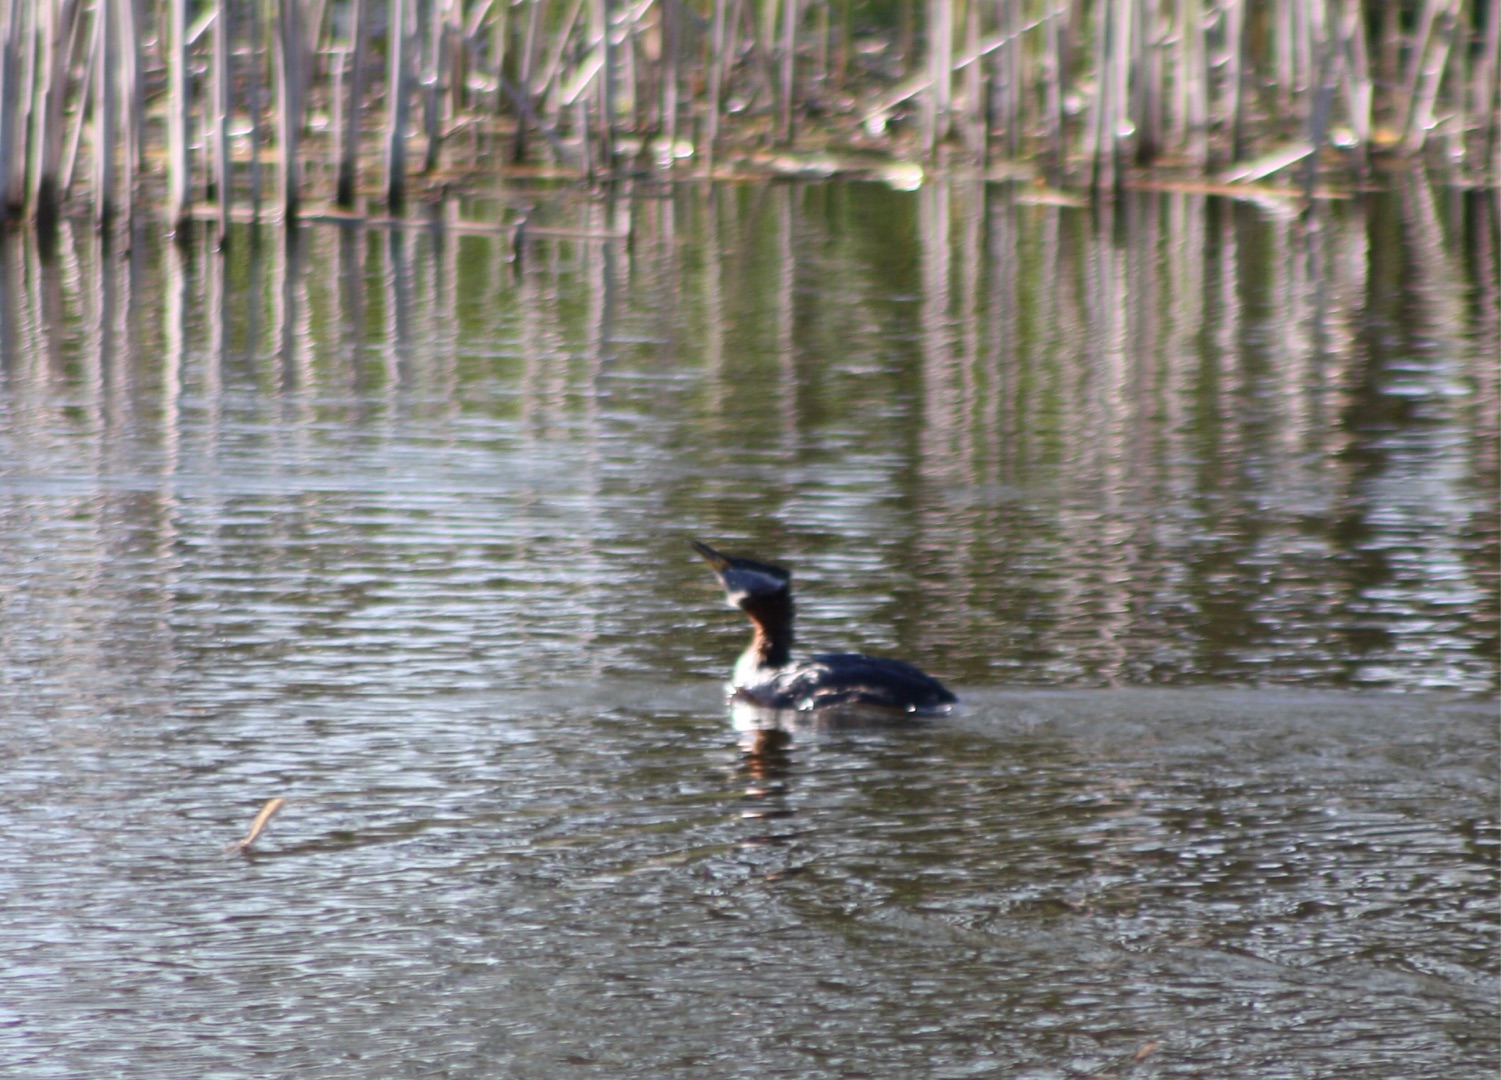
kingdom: Animalia
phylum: Chordata
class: Aves
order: Podicipediformes
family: Podicipedidae
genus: Podiceps
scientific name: Podiceps grisegena
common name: Gråstrubet lappedykker
